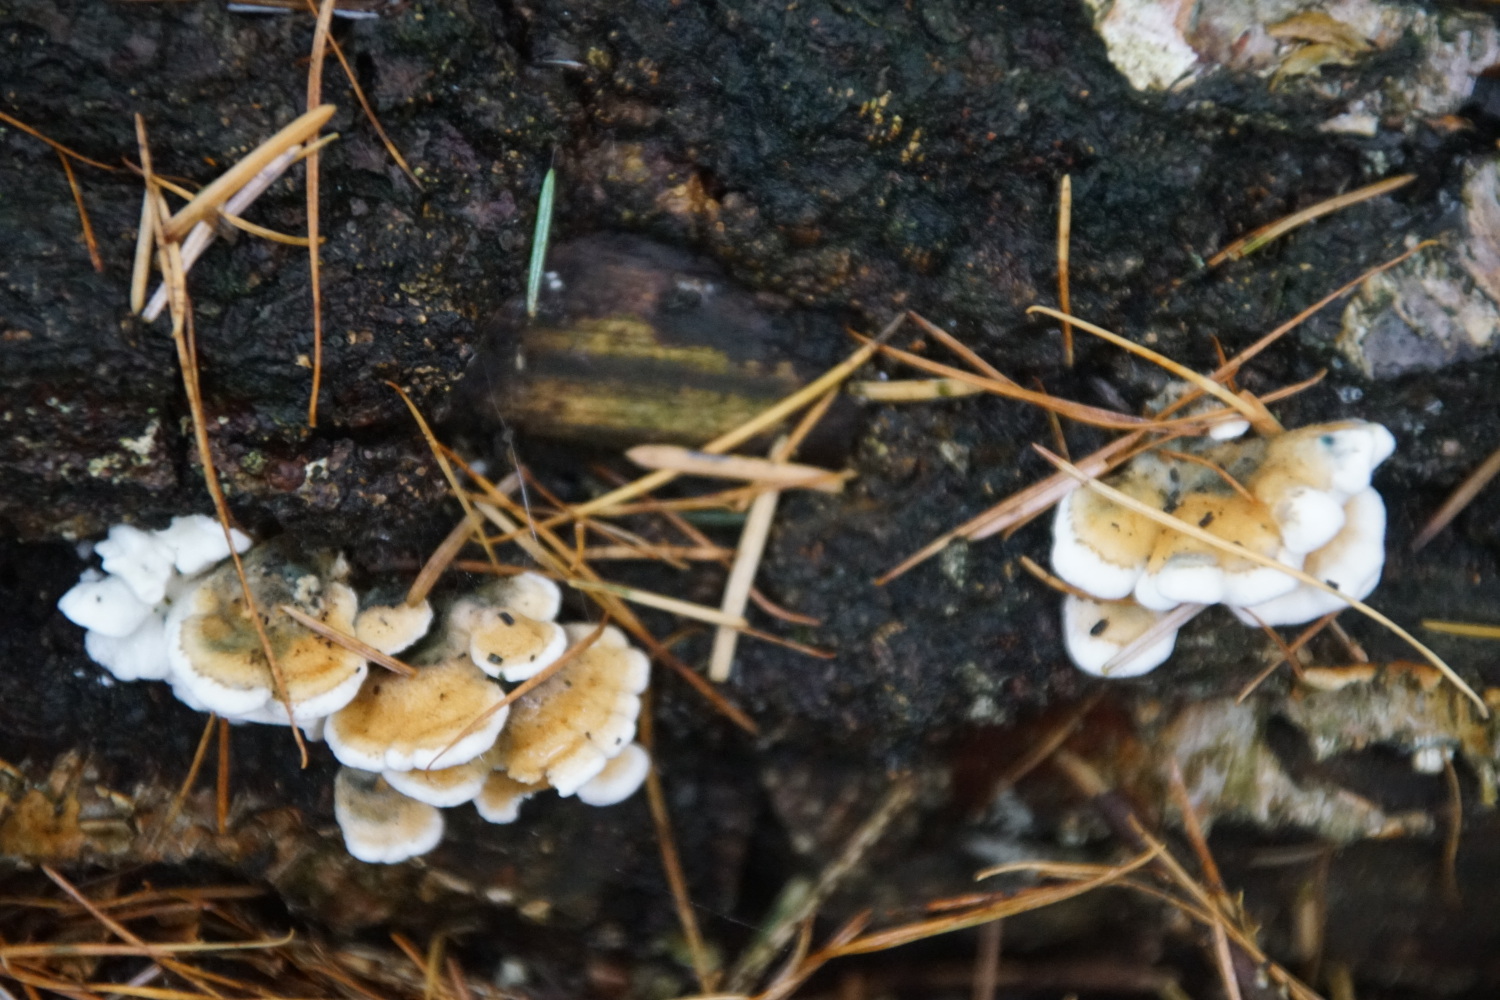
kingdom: Fungi
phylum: Basidiomycota
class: Agaricomycetes
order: Amylocorticiales
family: Amylocorticiaceae
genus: Plicaturopsis
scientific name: Plicaturopsis crispa
